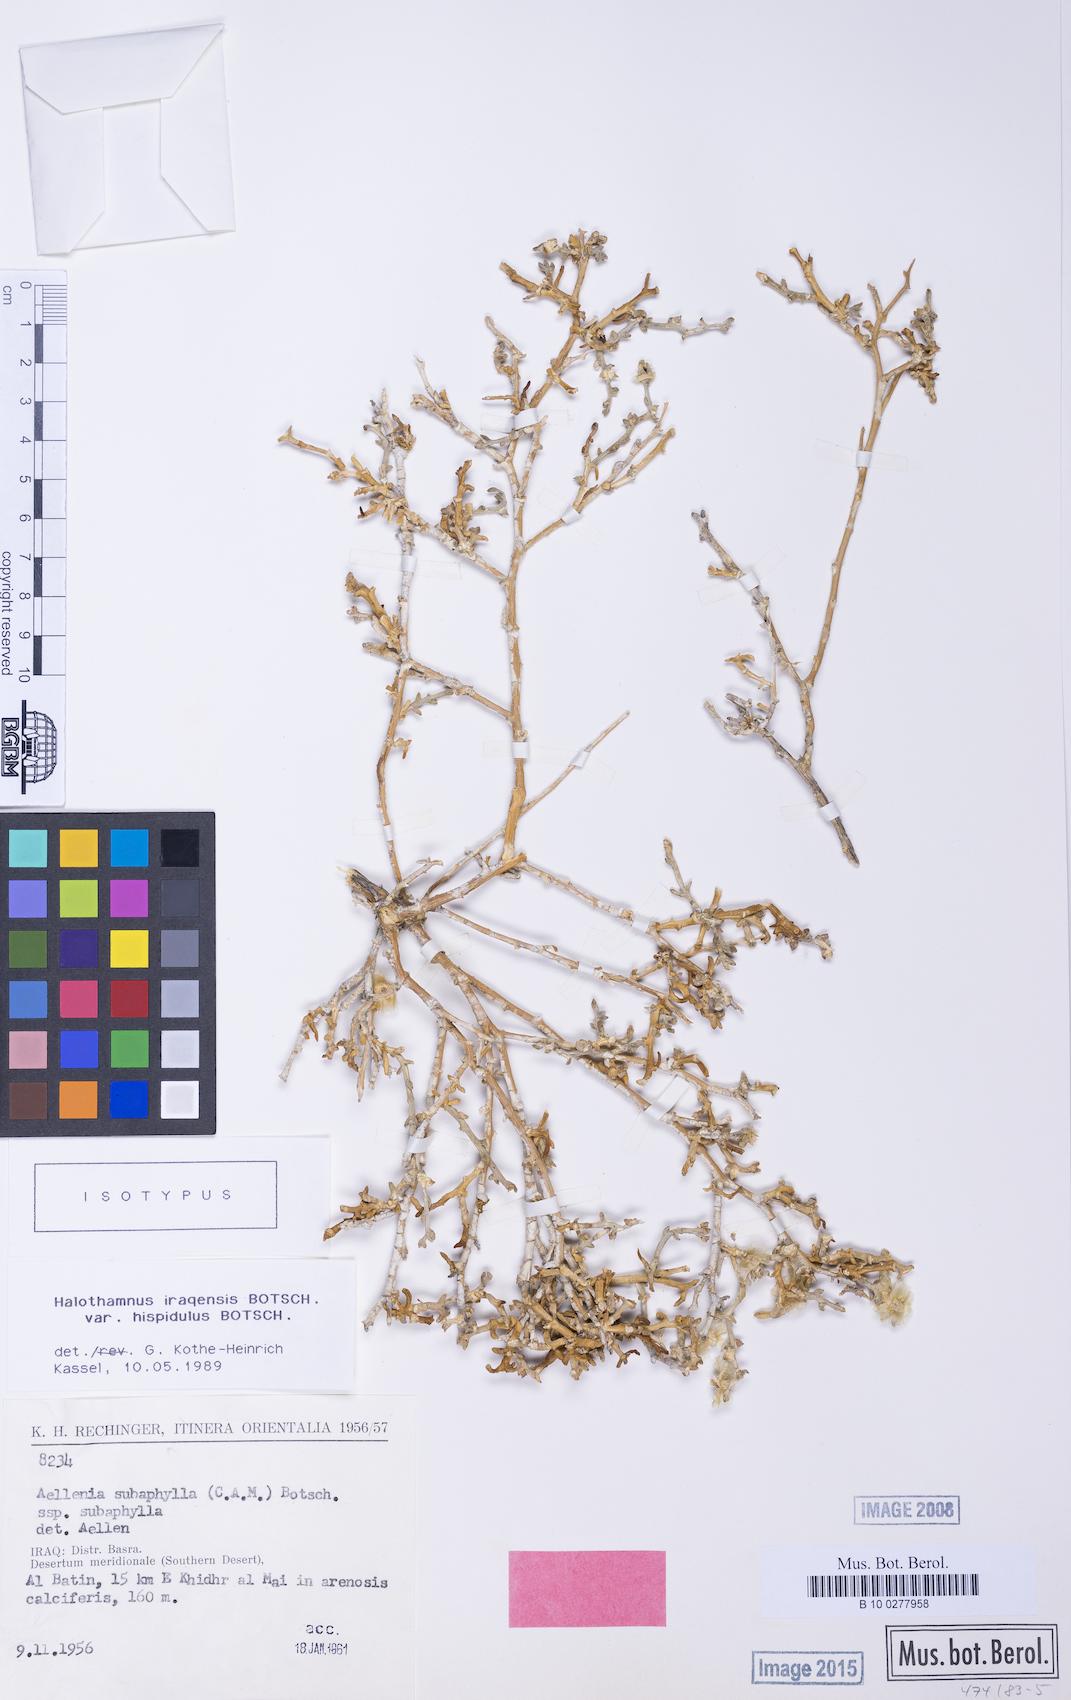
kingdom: Plantae
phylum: Tracheophyta
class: Magnoliopsida
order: Caryophyllales
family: Amaranthaceae
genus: Halothamnus
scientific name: Halothamnus iraqensis
